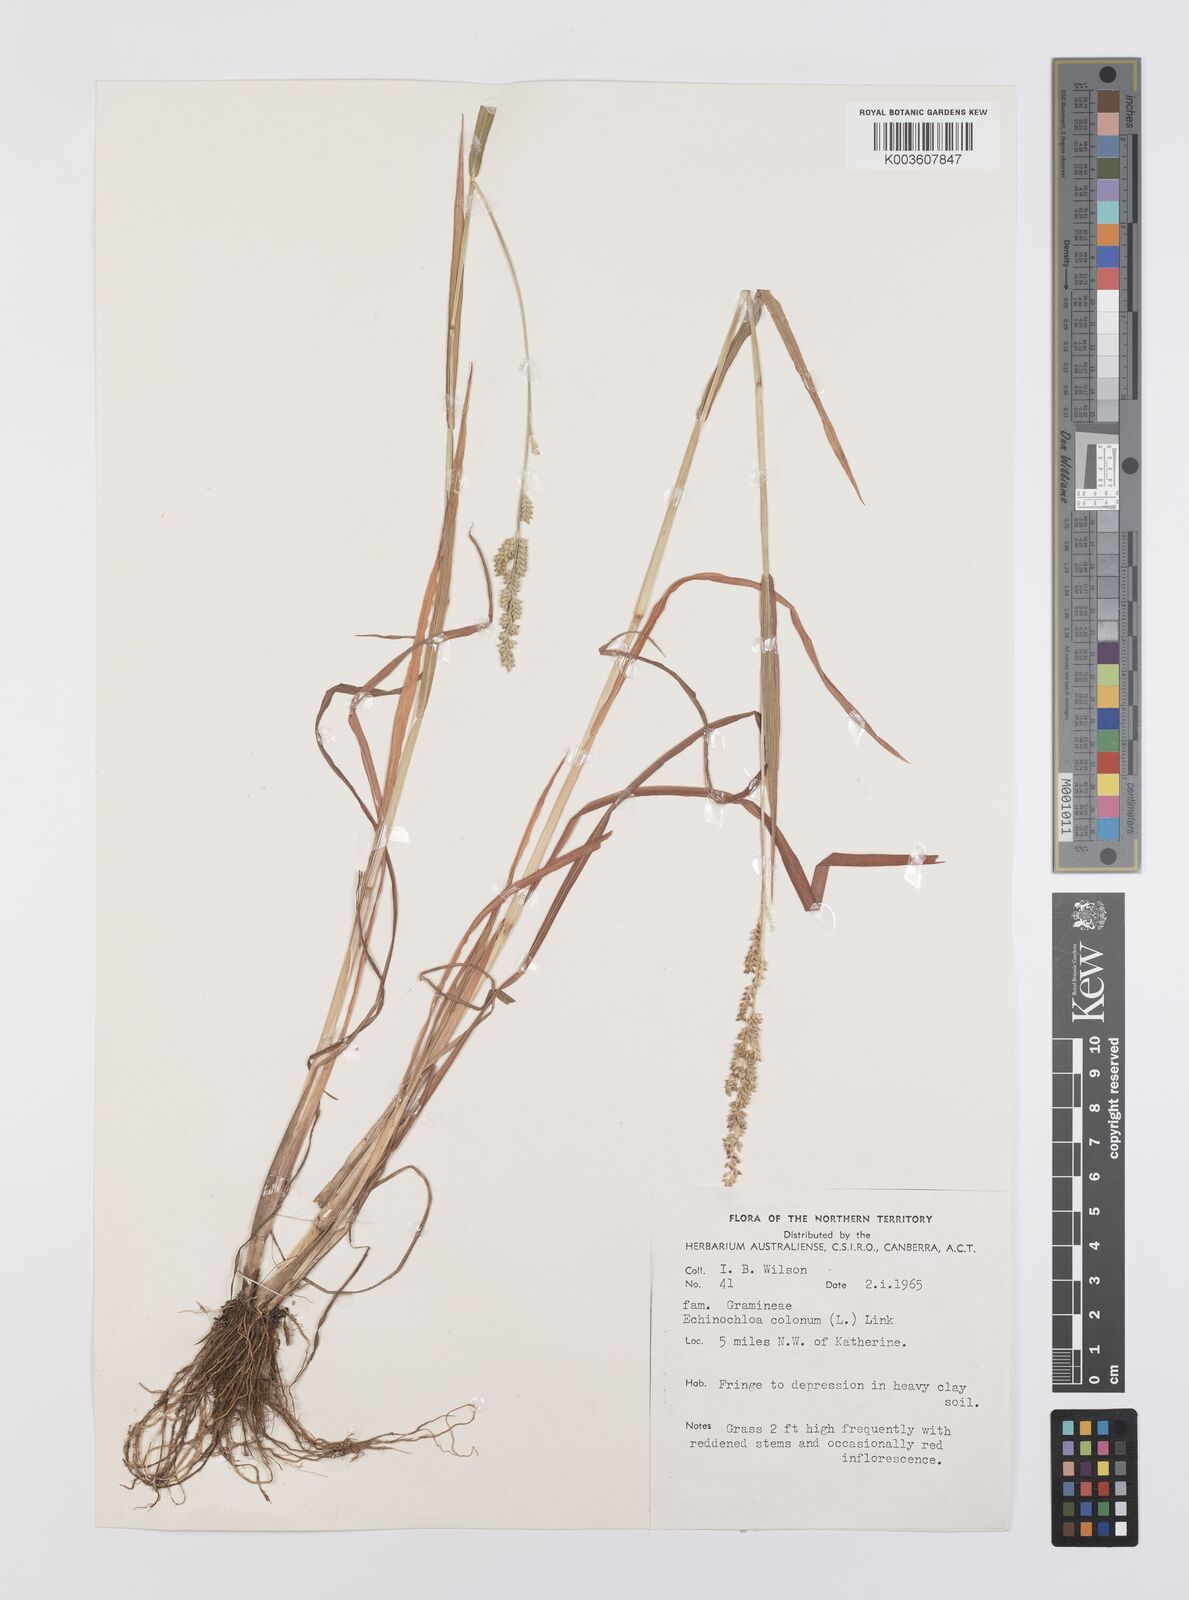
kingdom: Plantae
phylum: Tracheophyta
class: Liliopsida
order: Poales
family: Poaceae
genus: Echinochloa
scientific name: Echinochloa colonum
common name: Jungle rice
